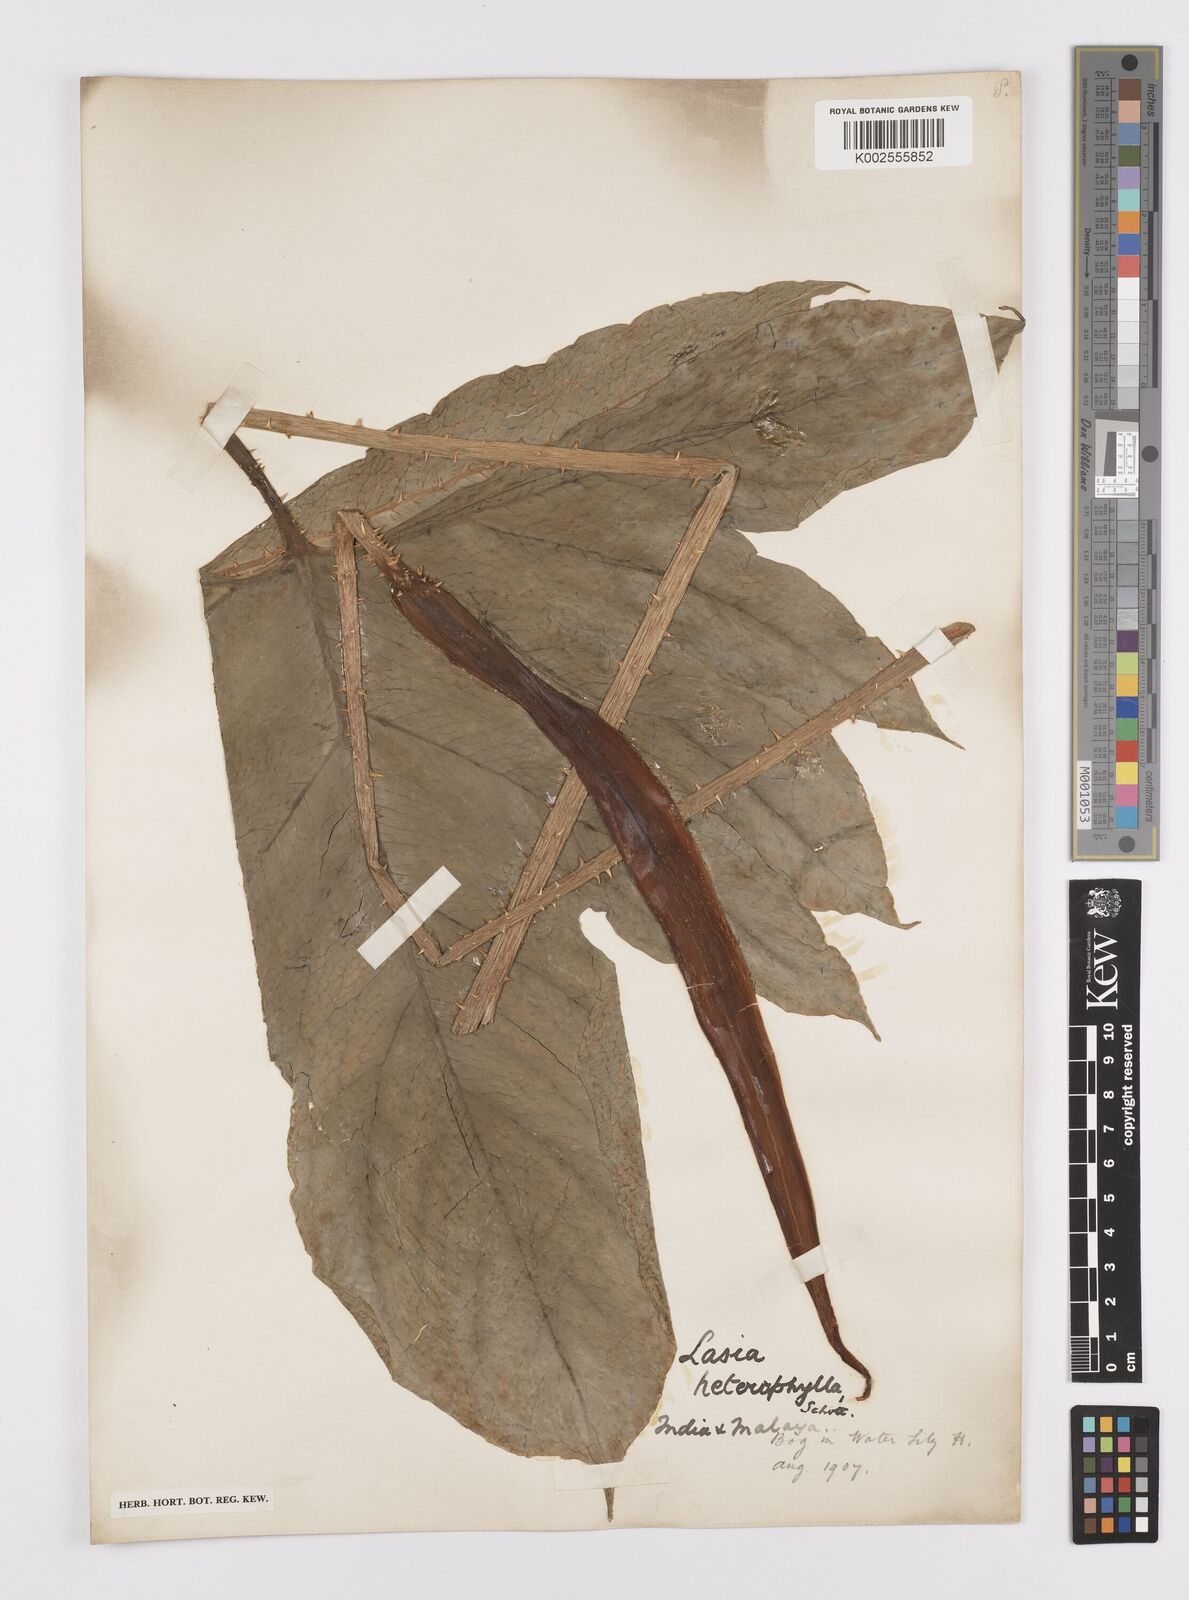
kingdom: Plantae
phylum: Tracheophyta
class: Liliopsida
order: Alismatales
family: Araceae
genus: Lasia
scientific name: Lasia spinosa
